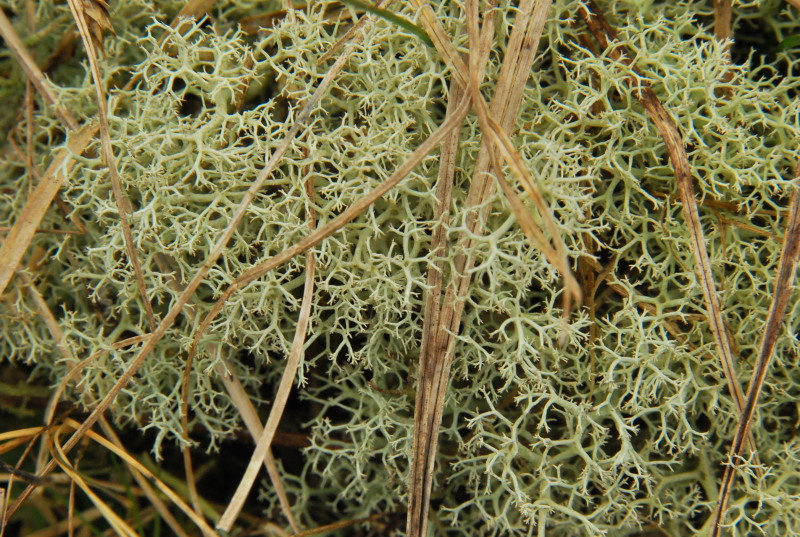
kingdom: Fungi
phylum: Ascomycota
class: Lecanoromycetes
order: Lecanorales
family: Cladoniaceae
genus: Cladonia
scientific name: Cladonia portentosa
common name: hede-rensdyrlav
